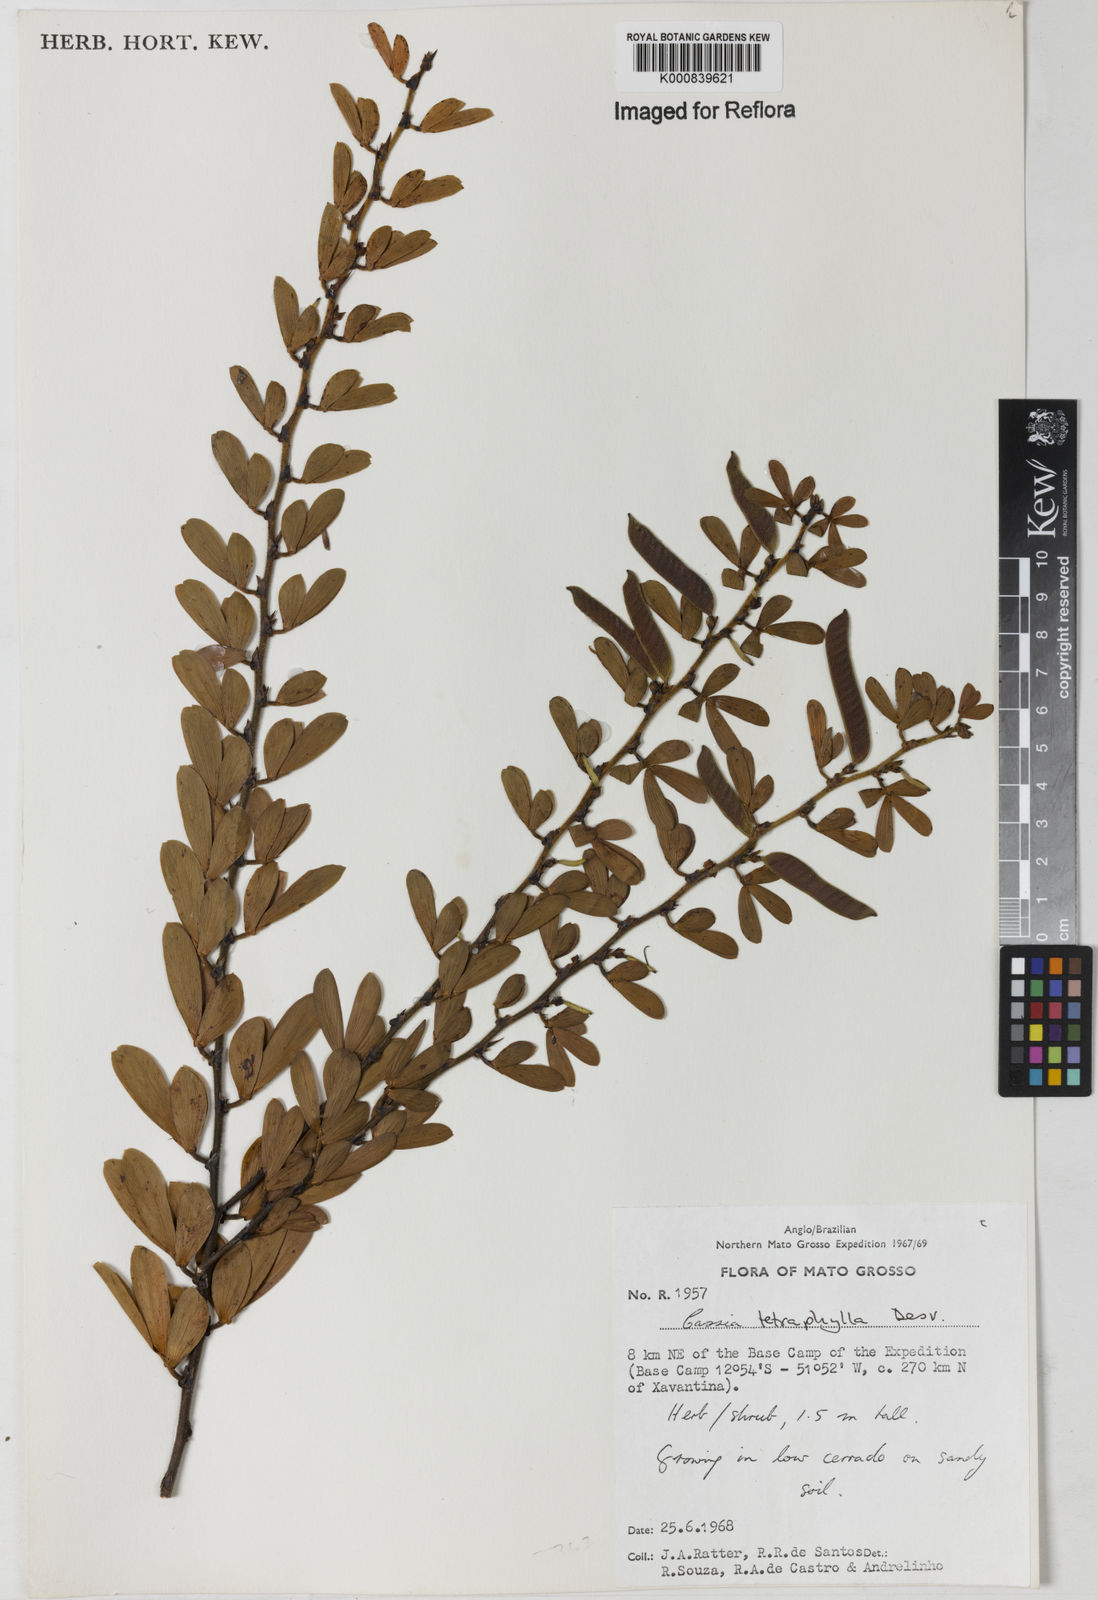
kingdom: Plantae
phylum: Tracheophyta
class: Magnoliopsida
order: Fabales
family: Fabaceae
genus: Chamaecrista
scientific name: Chamaecrista desvauxii
